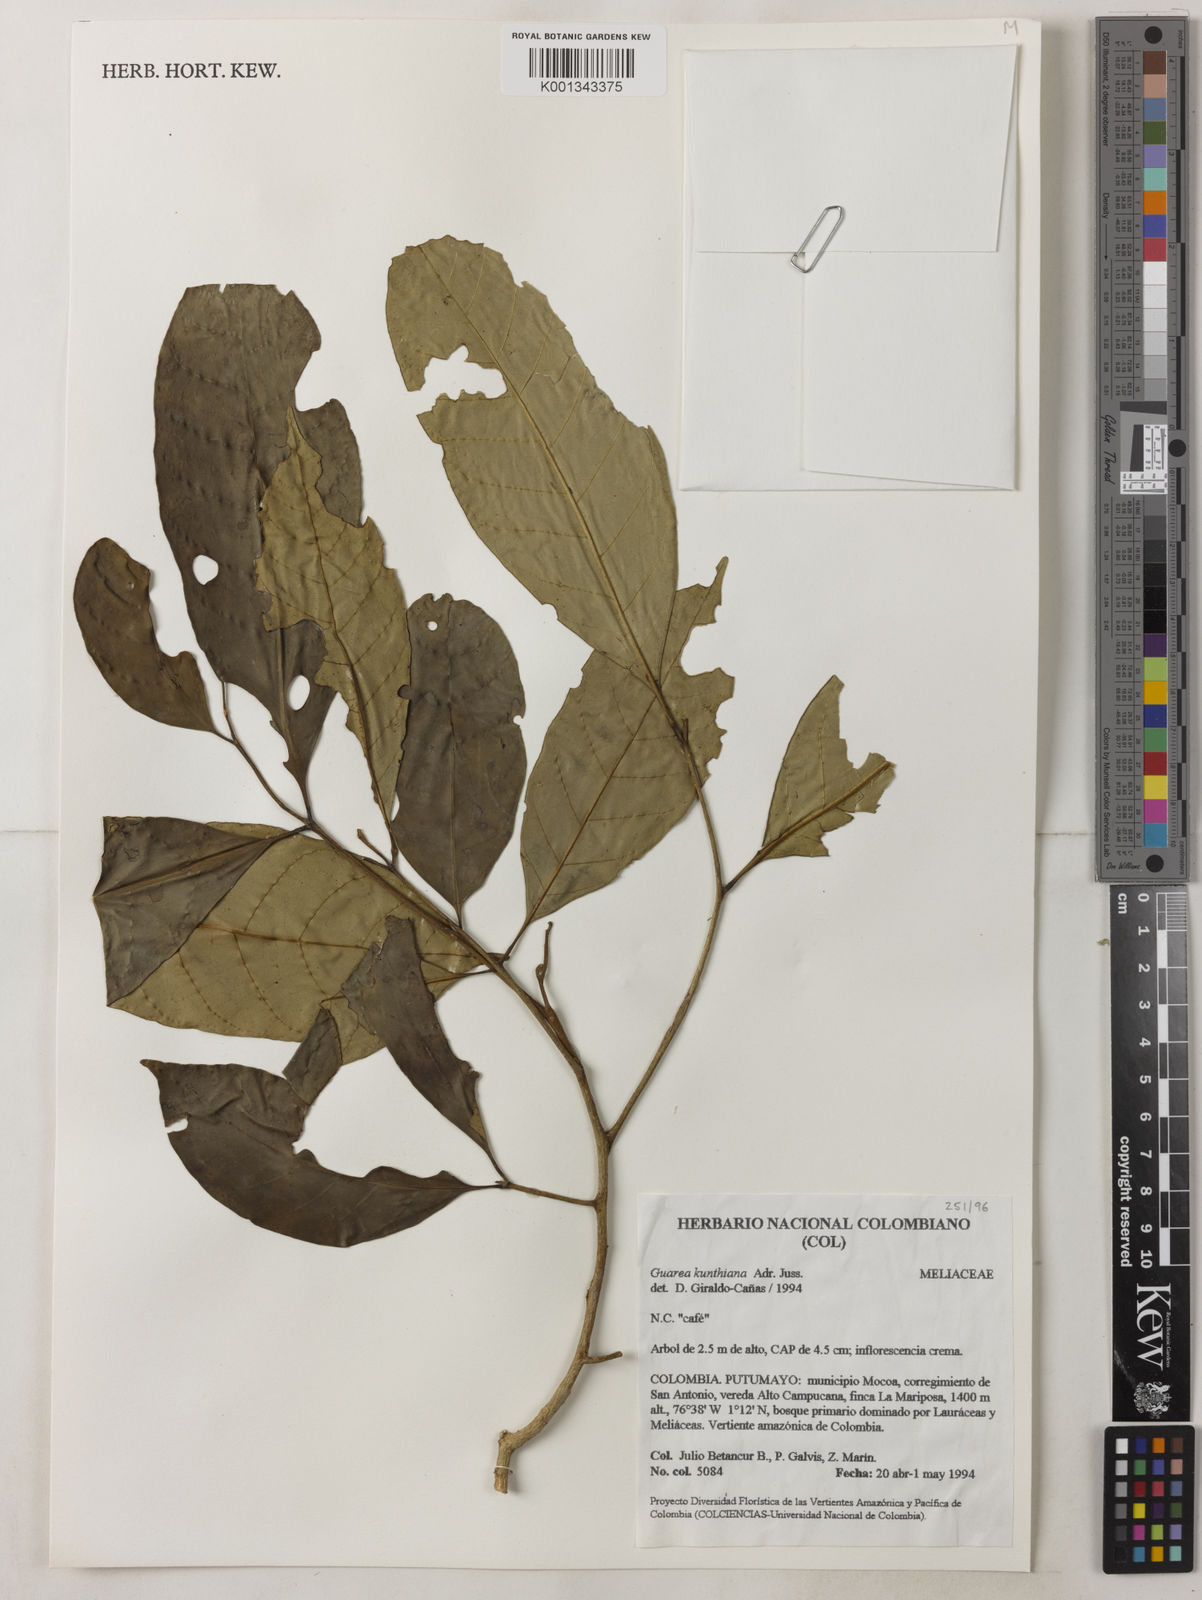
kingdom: Plantae
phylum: Tracheophyta
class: Magnoliopsida
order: Sapindales
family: Meliaceae
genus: Guarea
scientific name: Guarea kunthiana
